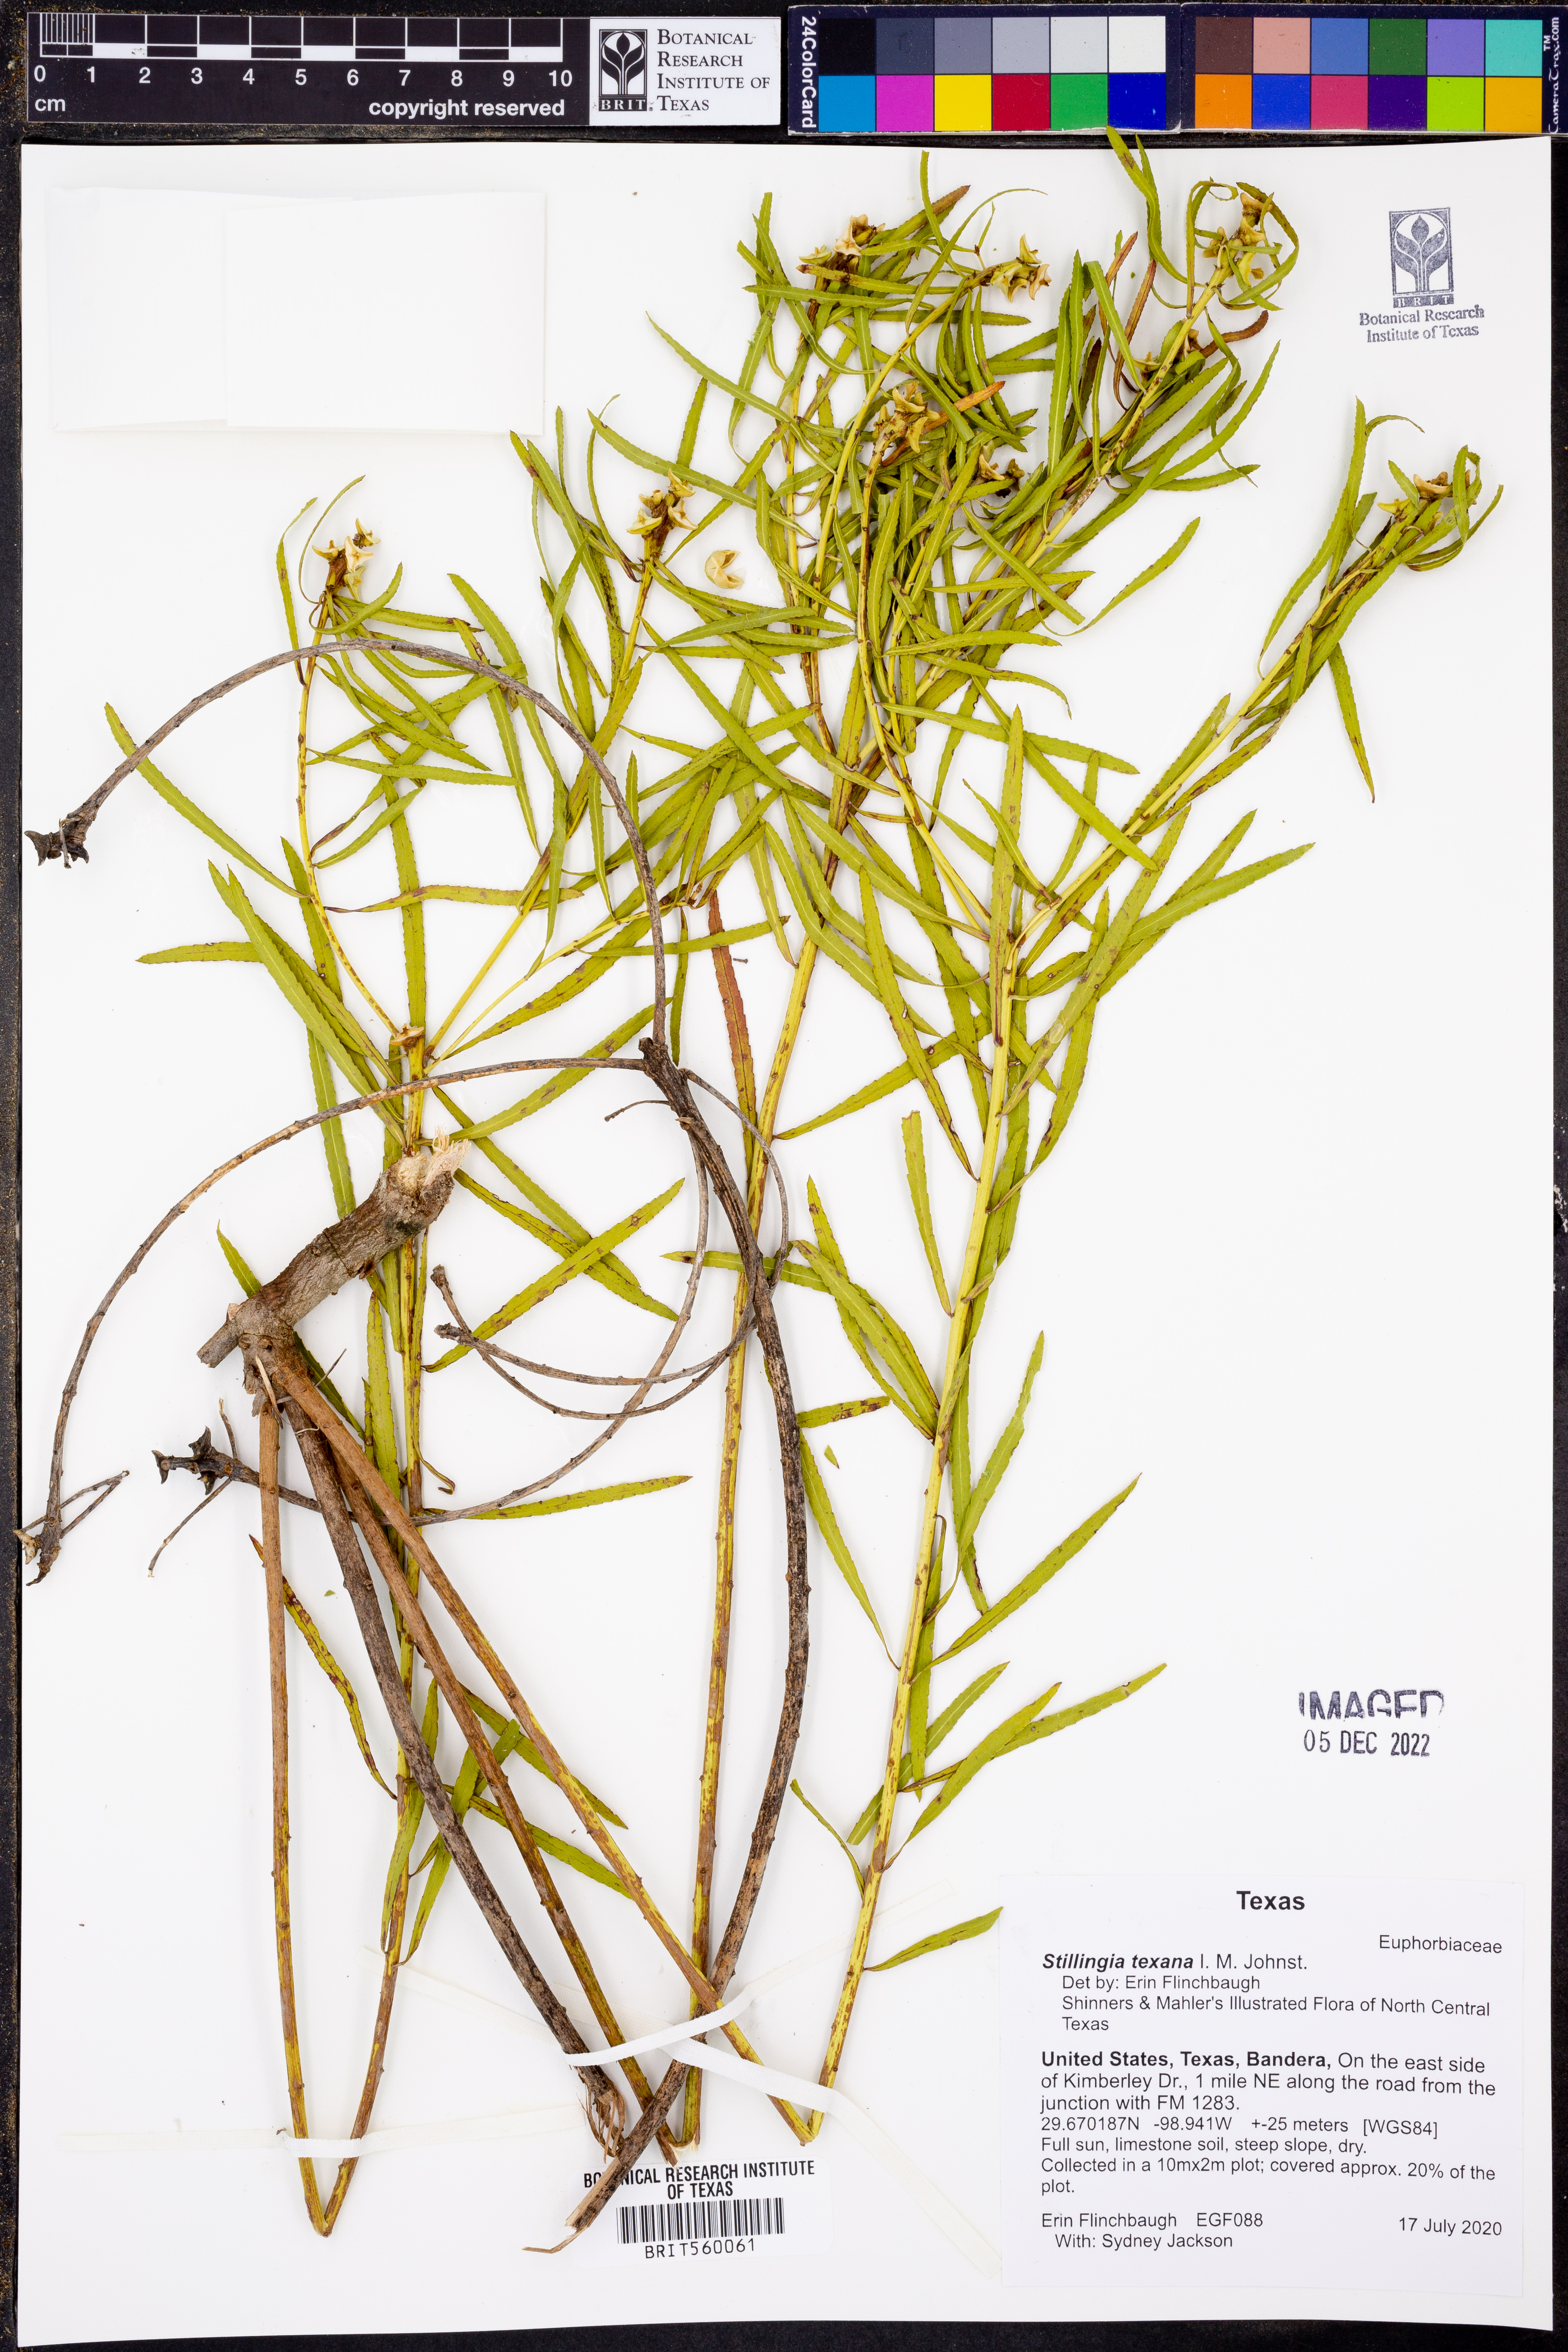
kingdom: Plantae
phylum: Tracheophyta
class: Magnoliopsida
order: Malpighiales
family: Euphorbiaceae
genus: Stillingia
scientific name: Stillingia texana
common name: Texas stillingia
